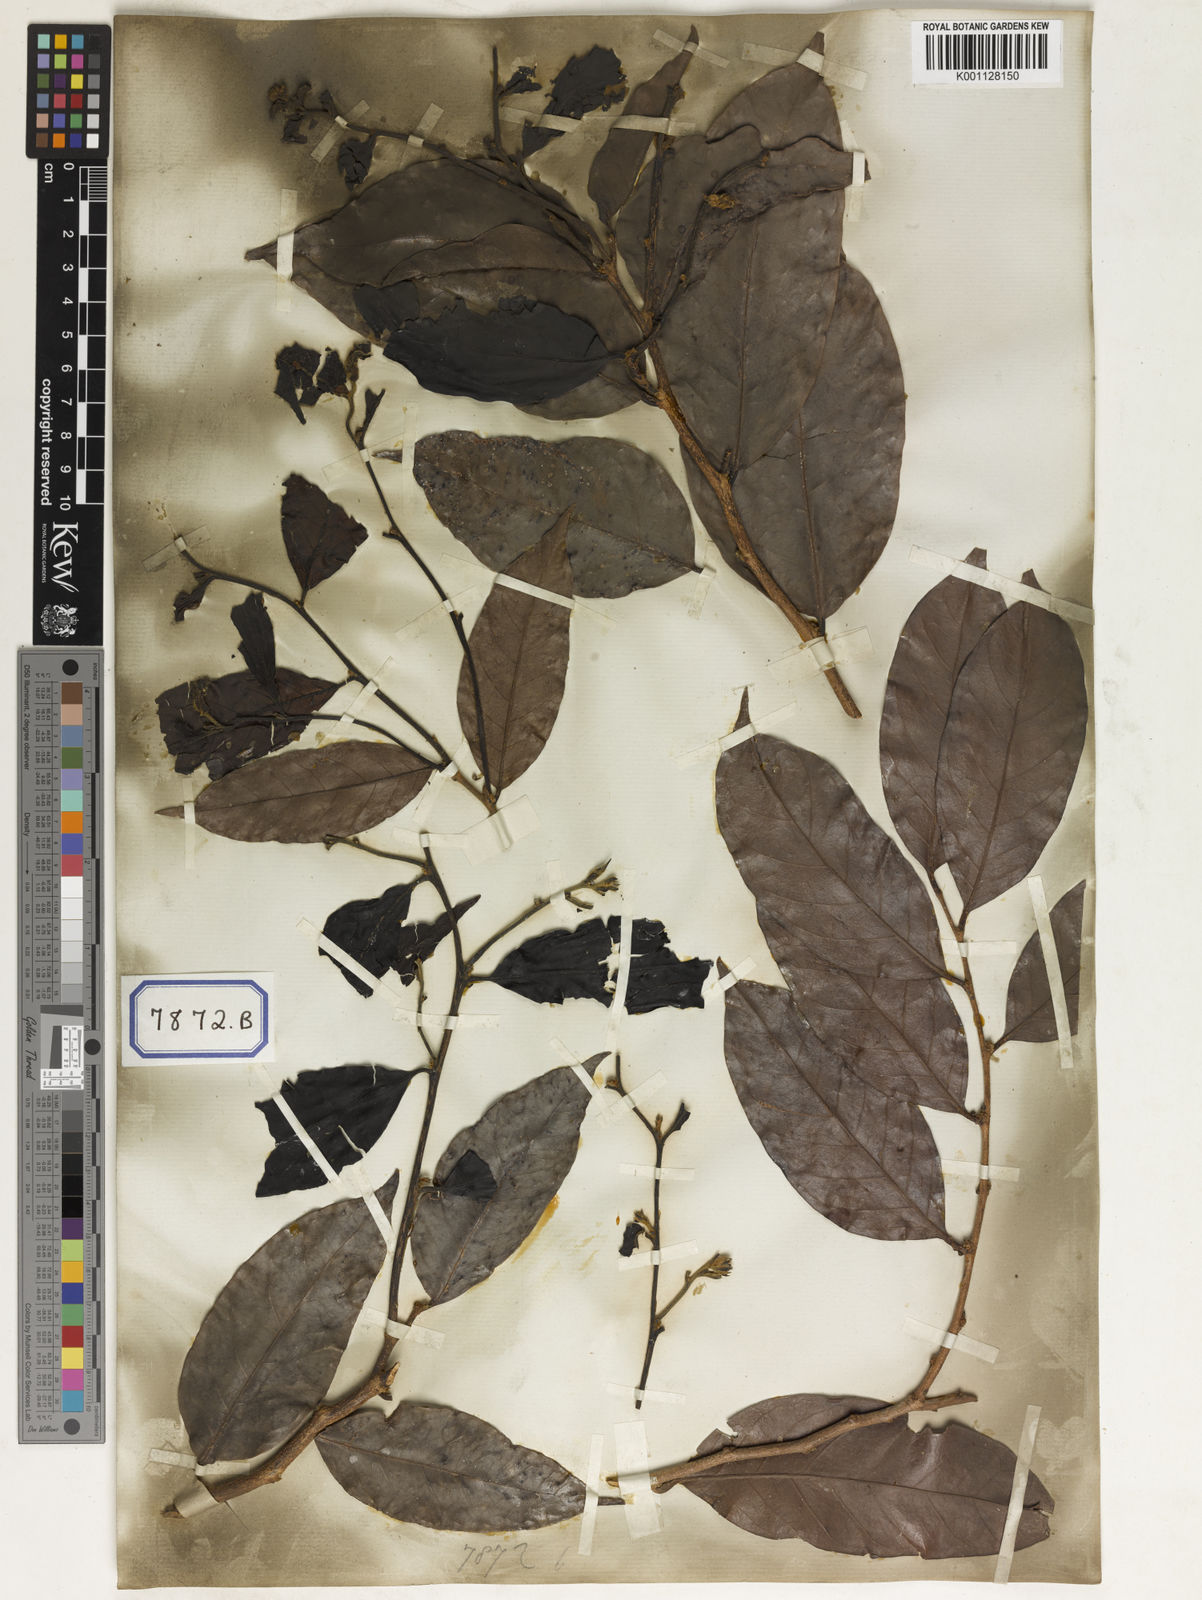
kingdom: Plantae
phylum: Tracheophyta
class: Magnoliopsida
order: Malpighiales
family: Euphorbiaceae
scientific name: Euphorbiaceae
